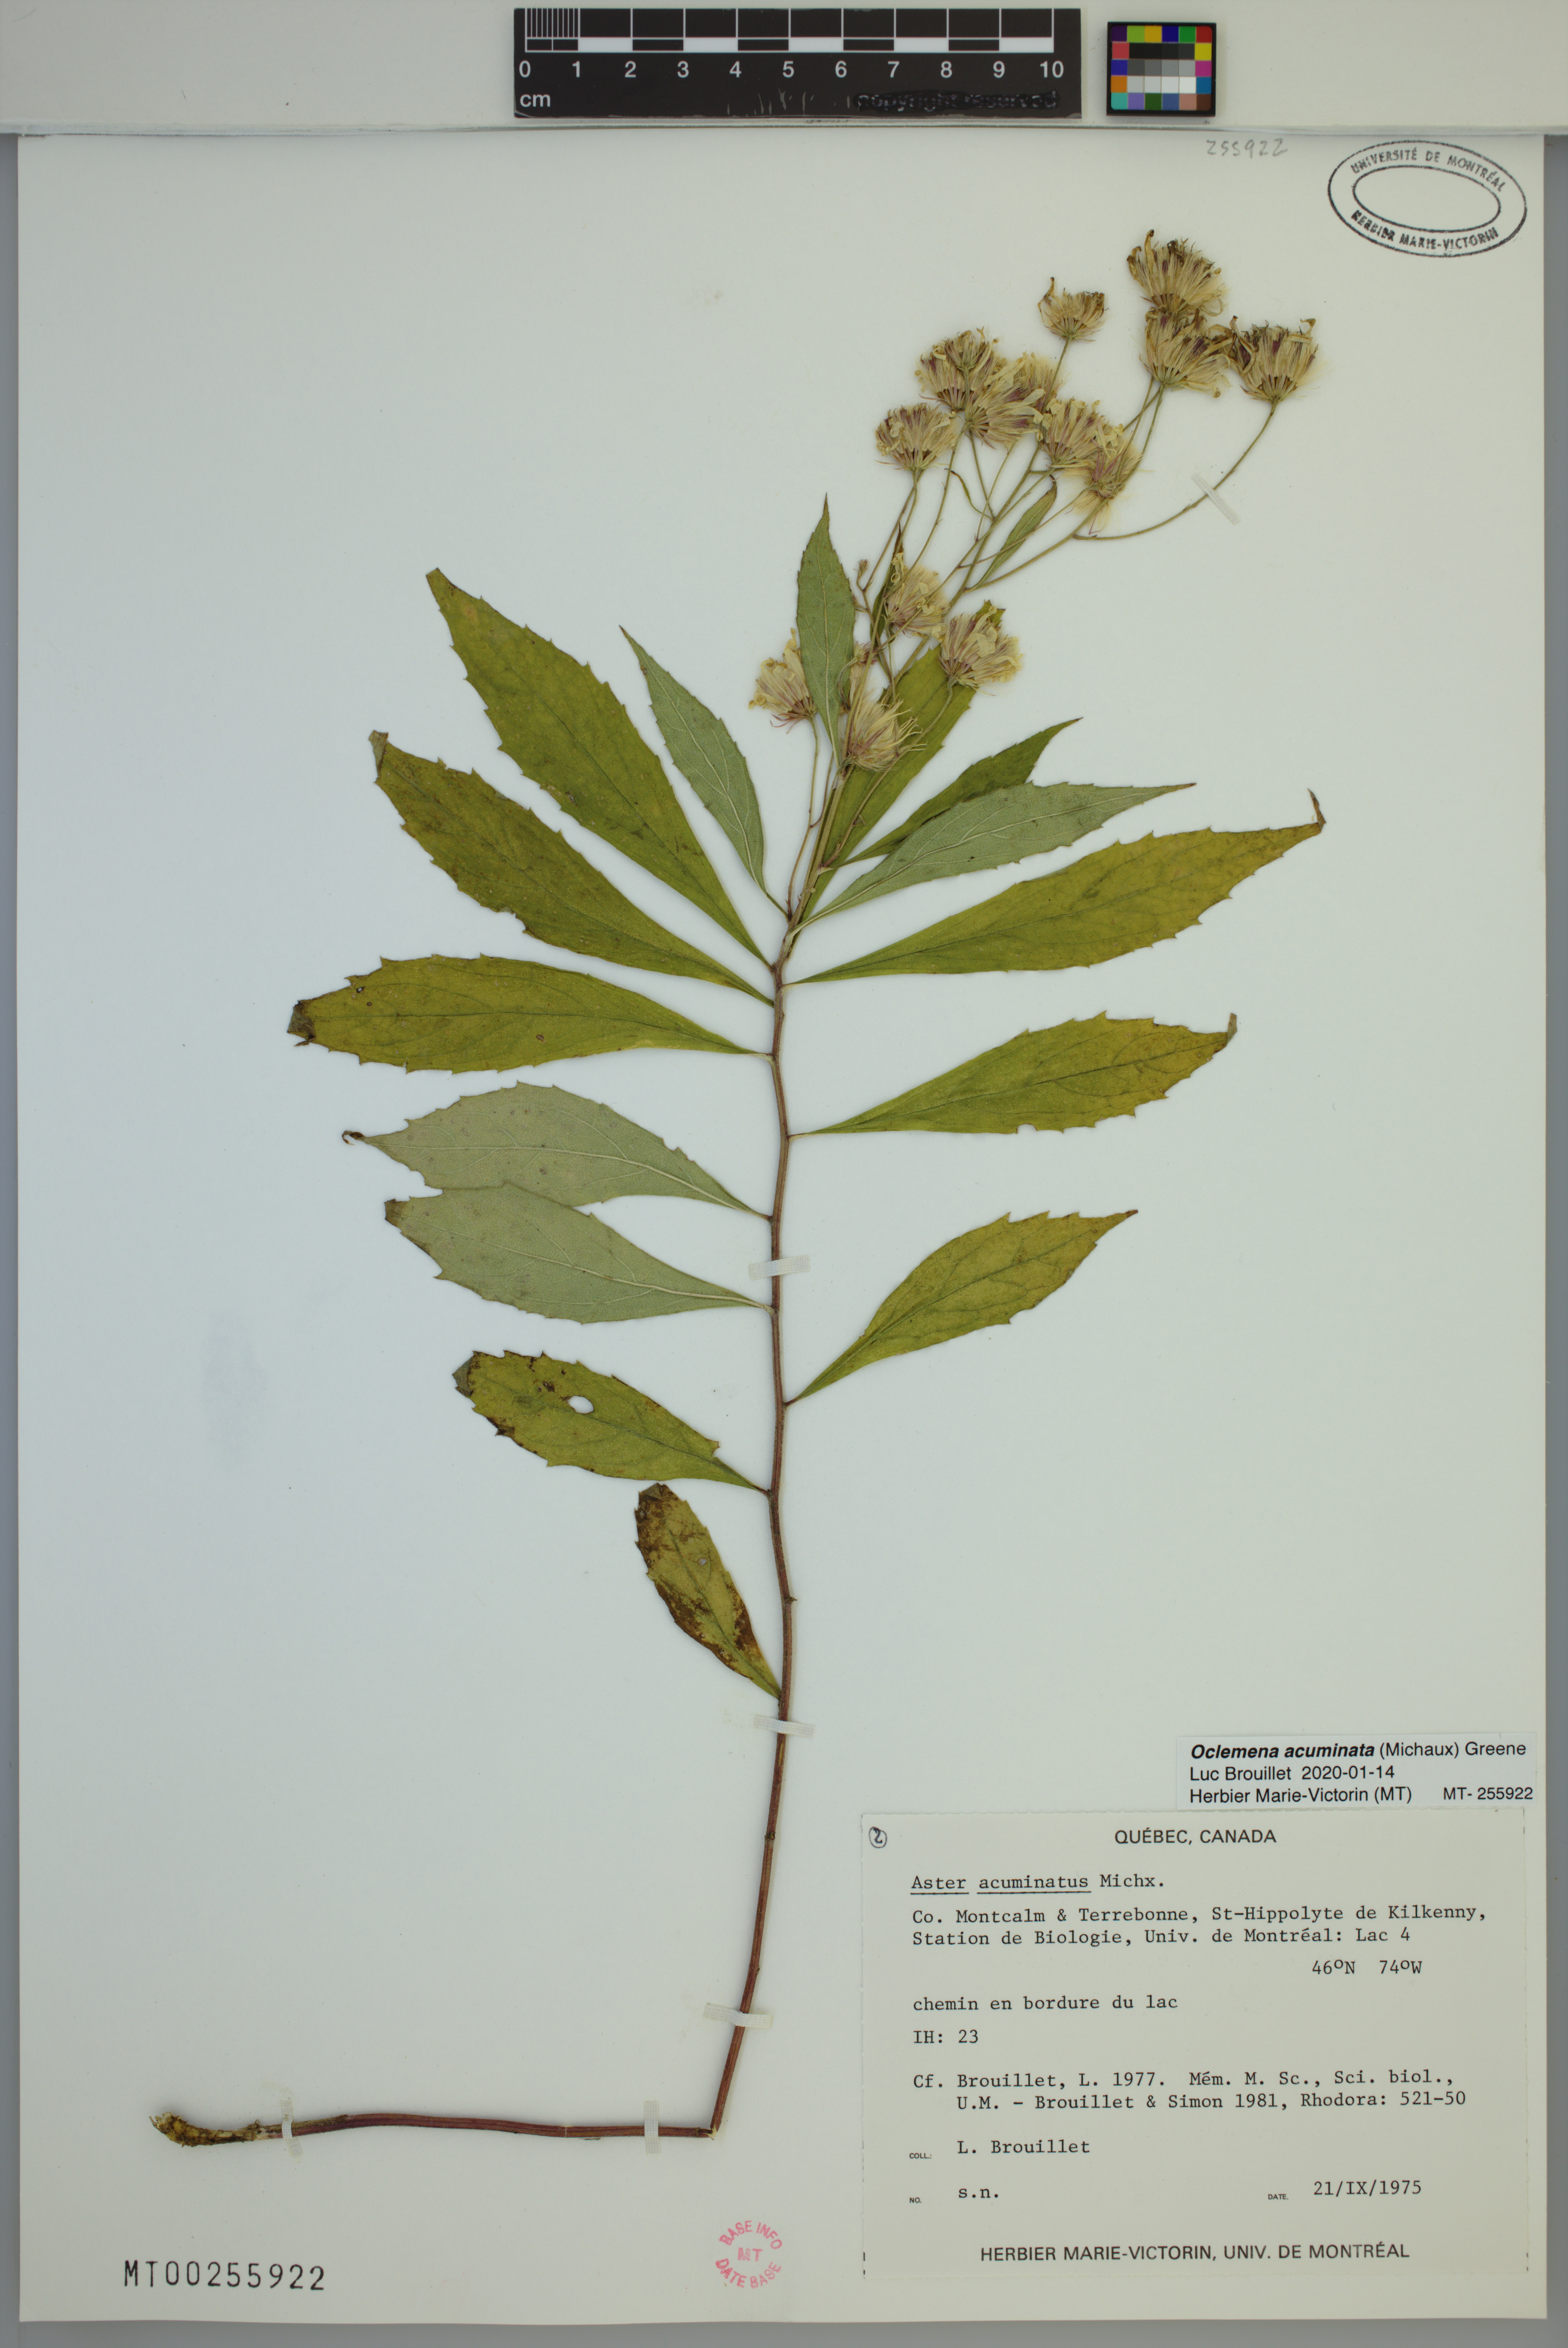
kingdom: Plantae
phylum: Tracheophyta
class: Magnoliopsida
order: Asterales
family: Asteraceae
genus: Oclemena
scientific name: Oclemena acuminata
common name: Mountain aster
